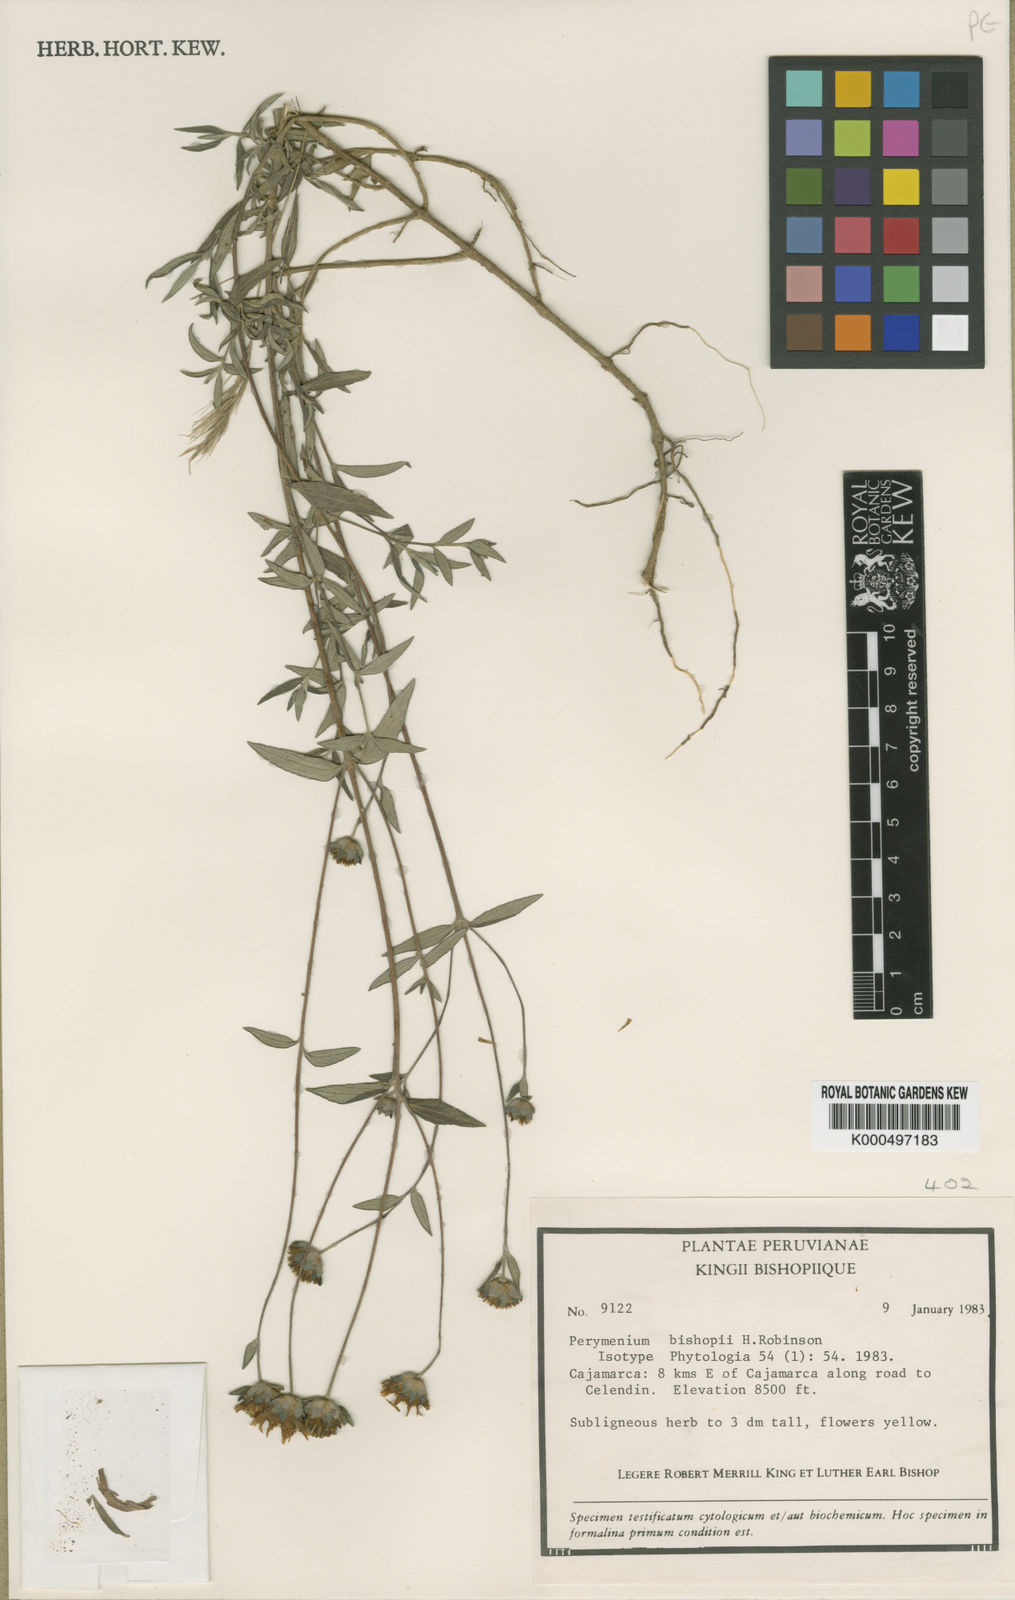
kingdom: Plantae
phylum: Tracheophyta
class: Magnoliopsida
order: Asterales
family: Asteraceae
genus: Perymenium
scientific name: Perymenium bishopii
